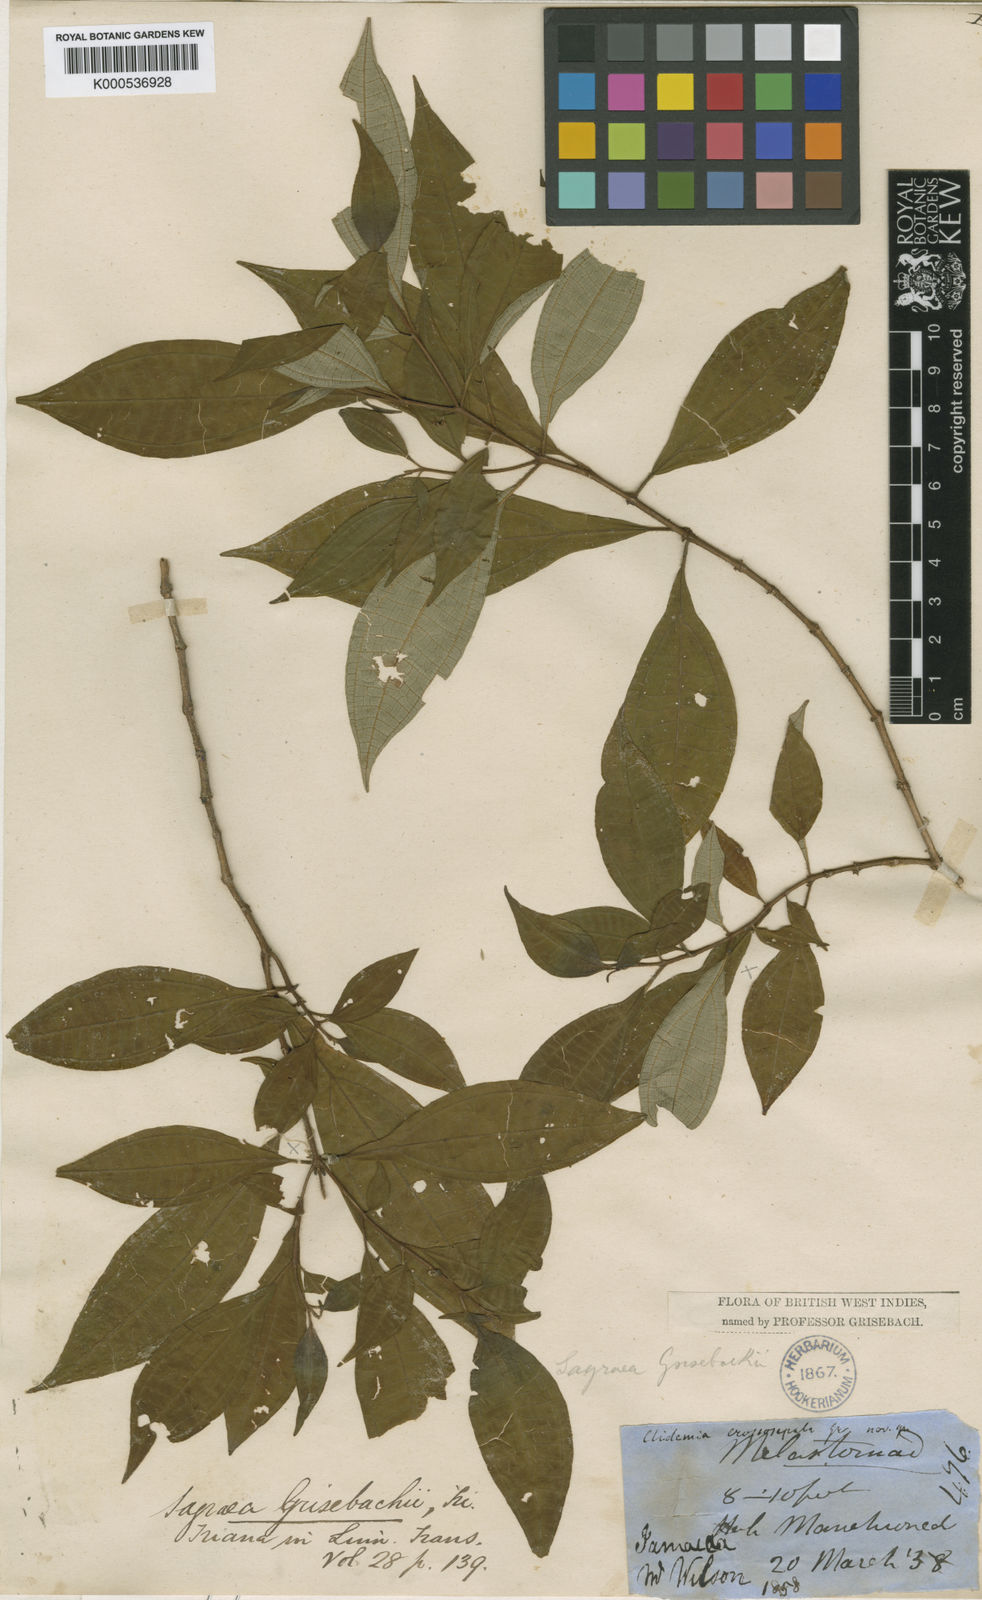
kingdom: Plantae
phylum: Tracheophyta
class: Magnoliopsida
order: Myrtales
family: Melastomataceae
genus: Miconia
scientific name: Miconia augustgrisebachii
